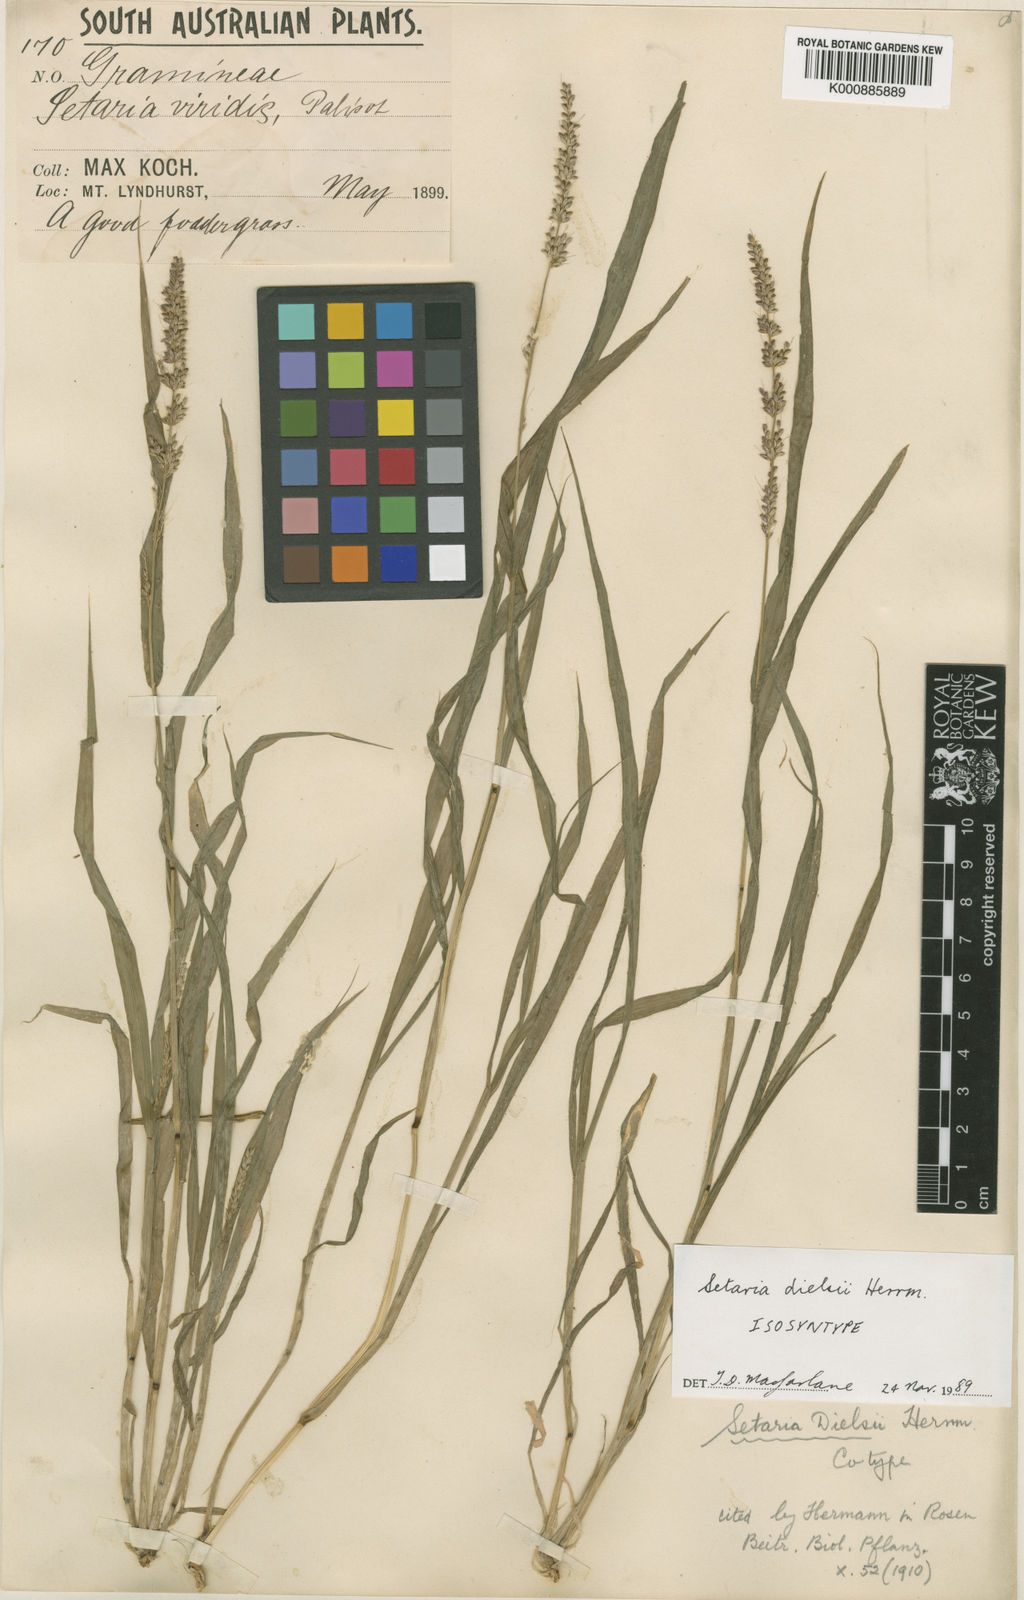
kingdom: Plantae
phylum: Tracheophyta
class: Liliopsida
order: Poales
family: Poaceae
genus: Setaria
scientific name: Setaria dielsii
